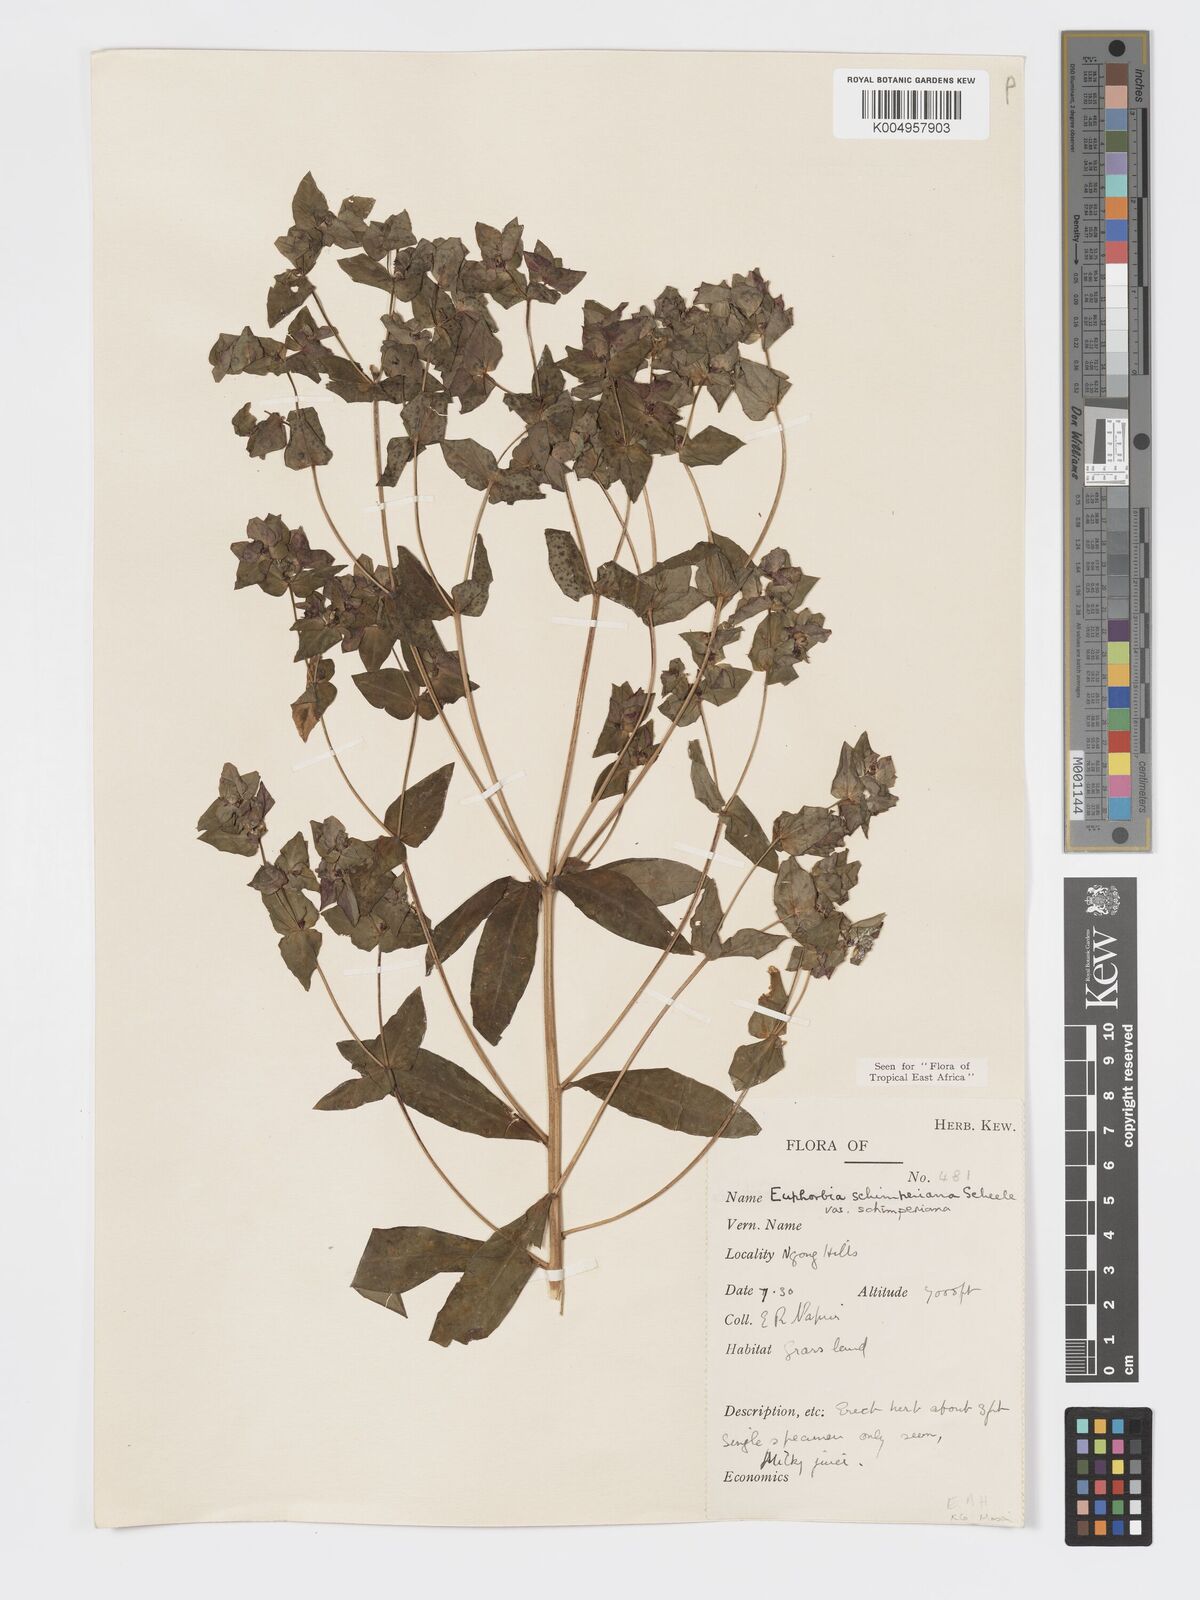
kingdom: Plantae
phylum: Tracheophyta
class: Magnoliopsida
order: Malpighiales
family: Euphorbiaceae
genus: Euphorbia
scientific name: Euphorbia schimperiana
